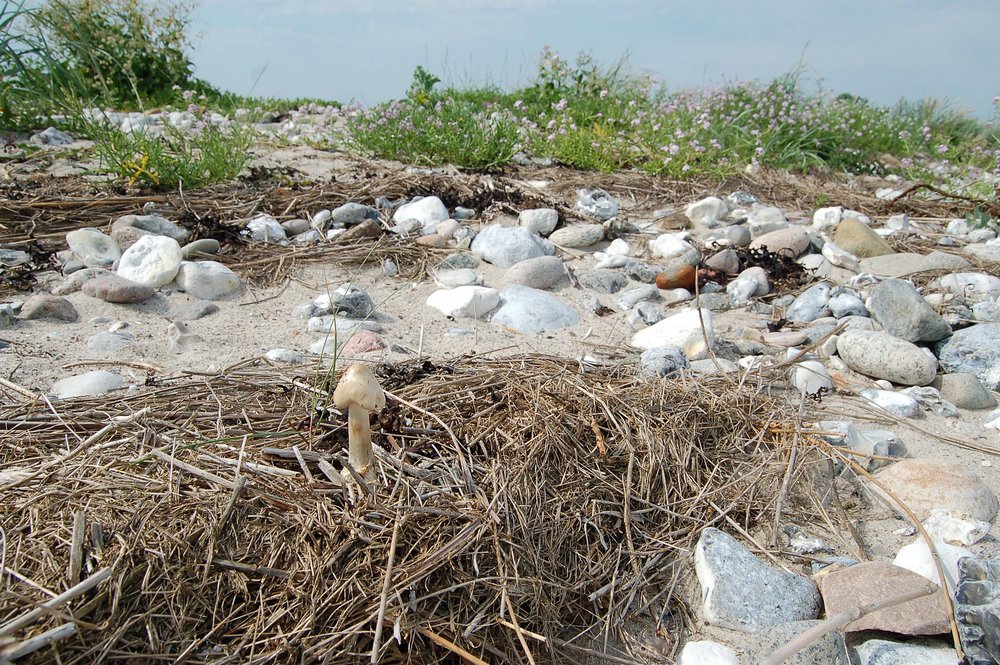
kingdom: Fungi
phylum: Basidiomycota
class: Agaricomycetes
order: Agaricales
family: Pluteaceae
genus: Volvopluteus
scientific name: Volvopluteus gloiocephalus
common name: høj posesvamp
